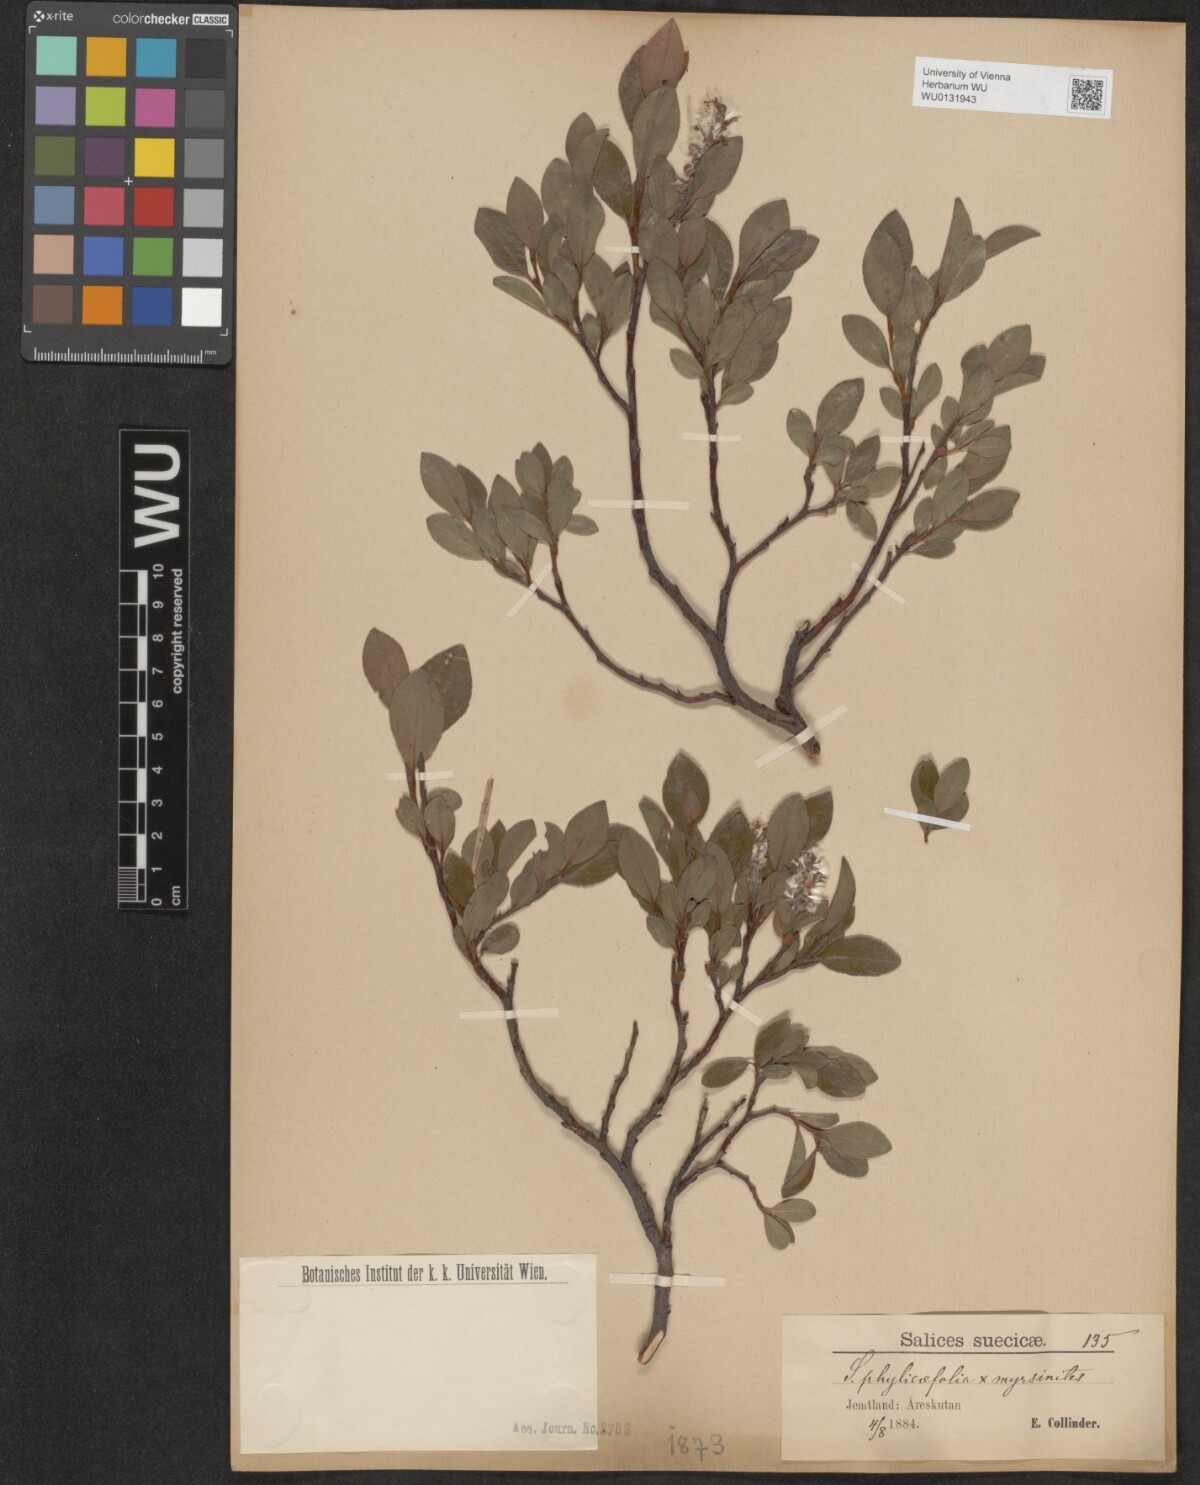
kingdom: Plantae
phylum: Tracheophyta
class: Magnoliopsida
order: Malpighiales
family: Salicaceae
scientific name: Salicaceae
